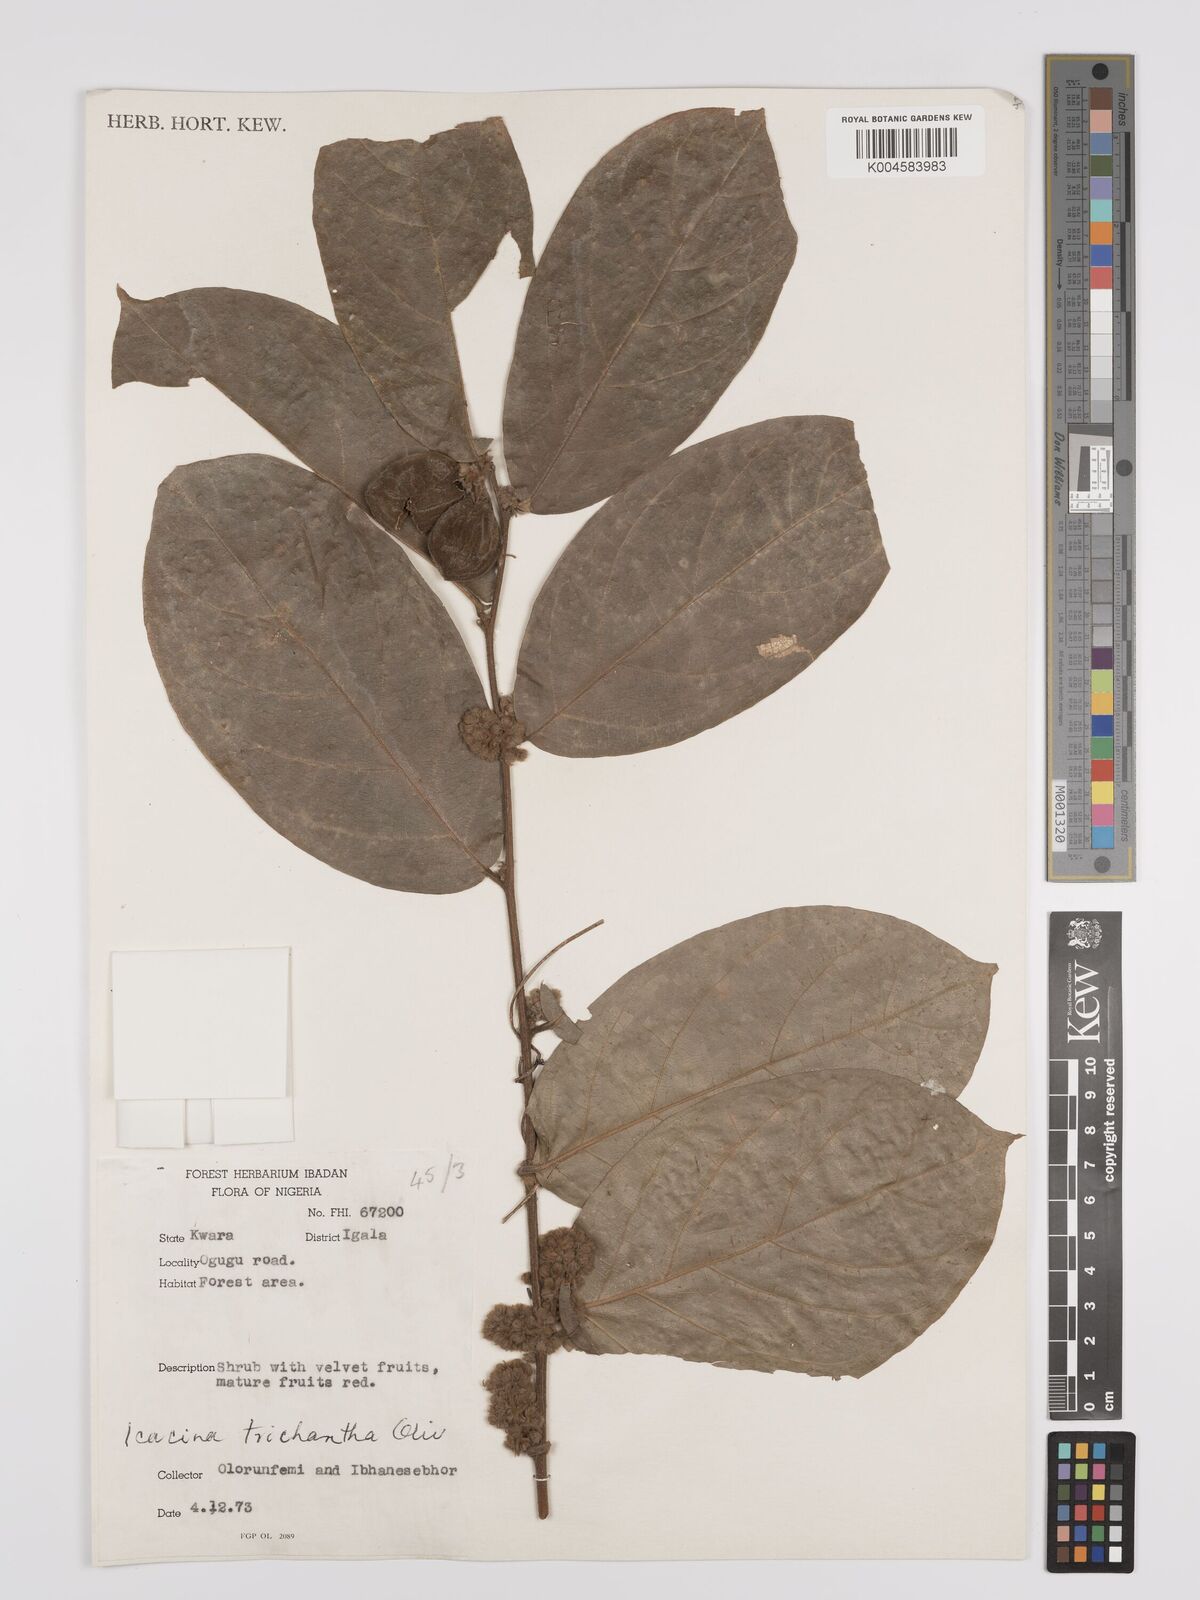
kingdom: Plantae
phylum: Tracheophyta
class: Magnoliopsida
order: Icacinales
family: Icacinaceae
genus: Icacina
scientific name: Icacina trichantha
